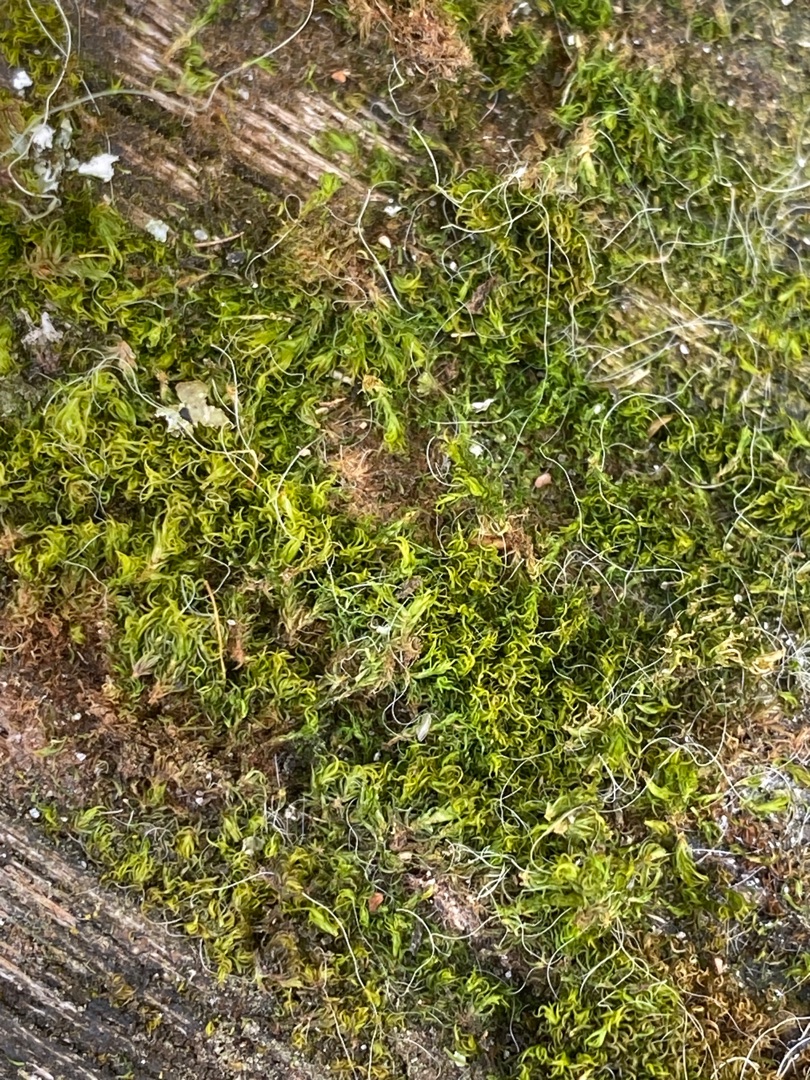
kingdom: Plantae
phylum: Bryophyta
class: Bryopsida
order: Dicranales
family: Rhabdoweisiaceae
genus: Dicranoweisia
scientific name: Dicranoweisia cirrata
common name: Almindelig krøltuemos
